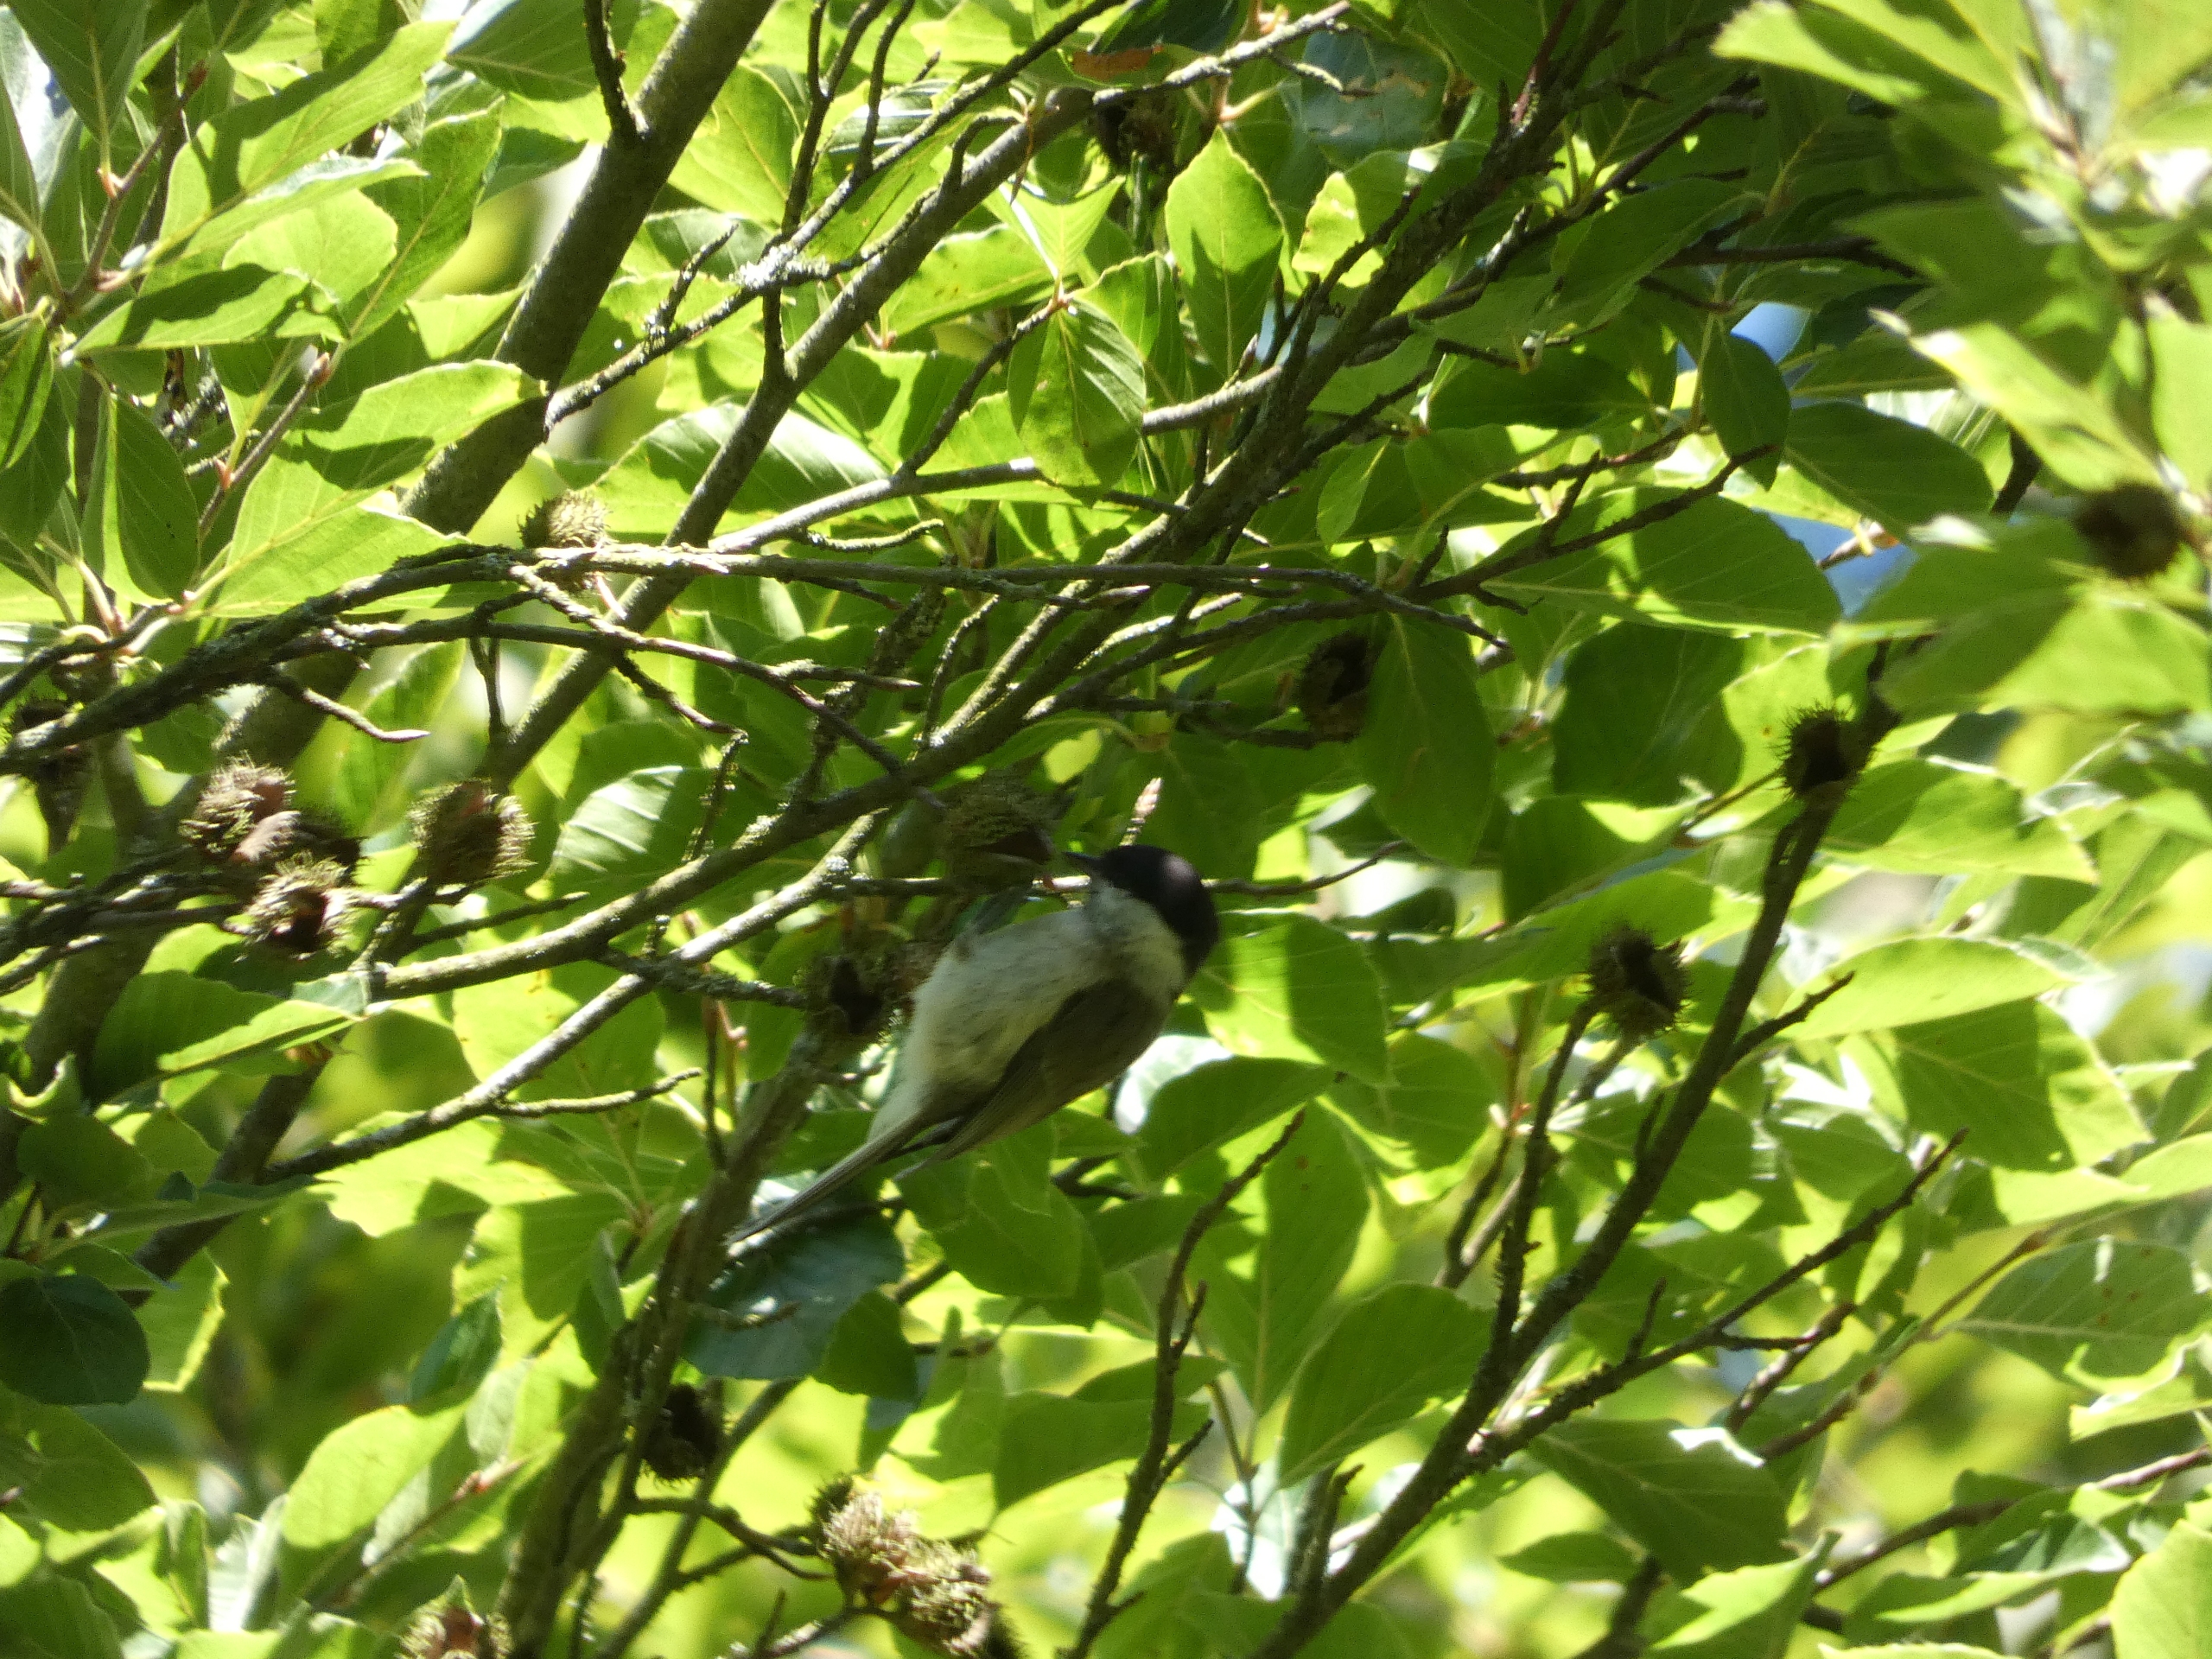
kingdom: Animalia
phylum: Chordata
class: Aves
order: Passeriformes
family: Paridae
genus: Poecile
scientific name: Poecile palustris
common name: Sumpmejse
